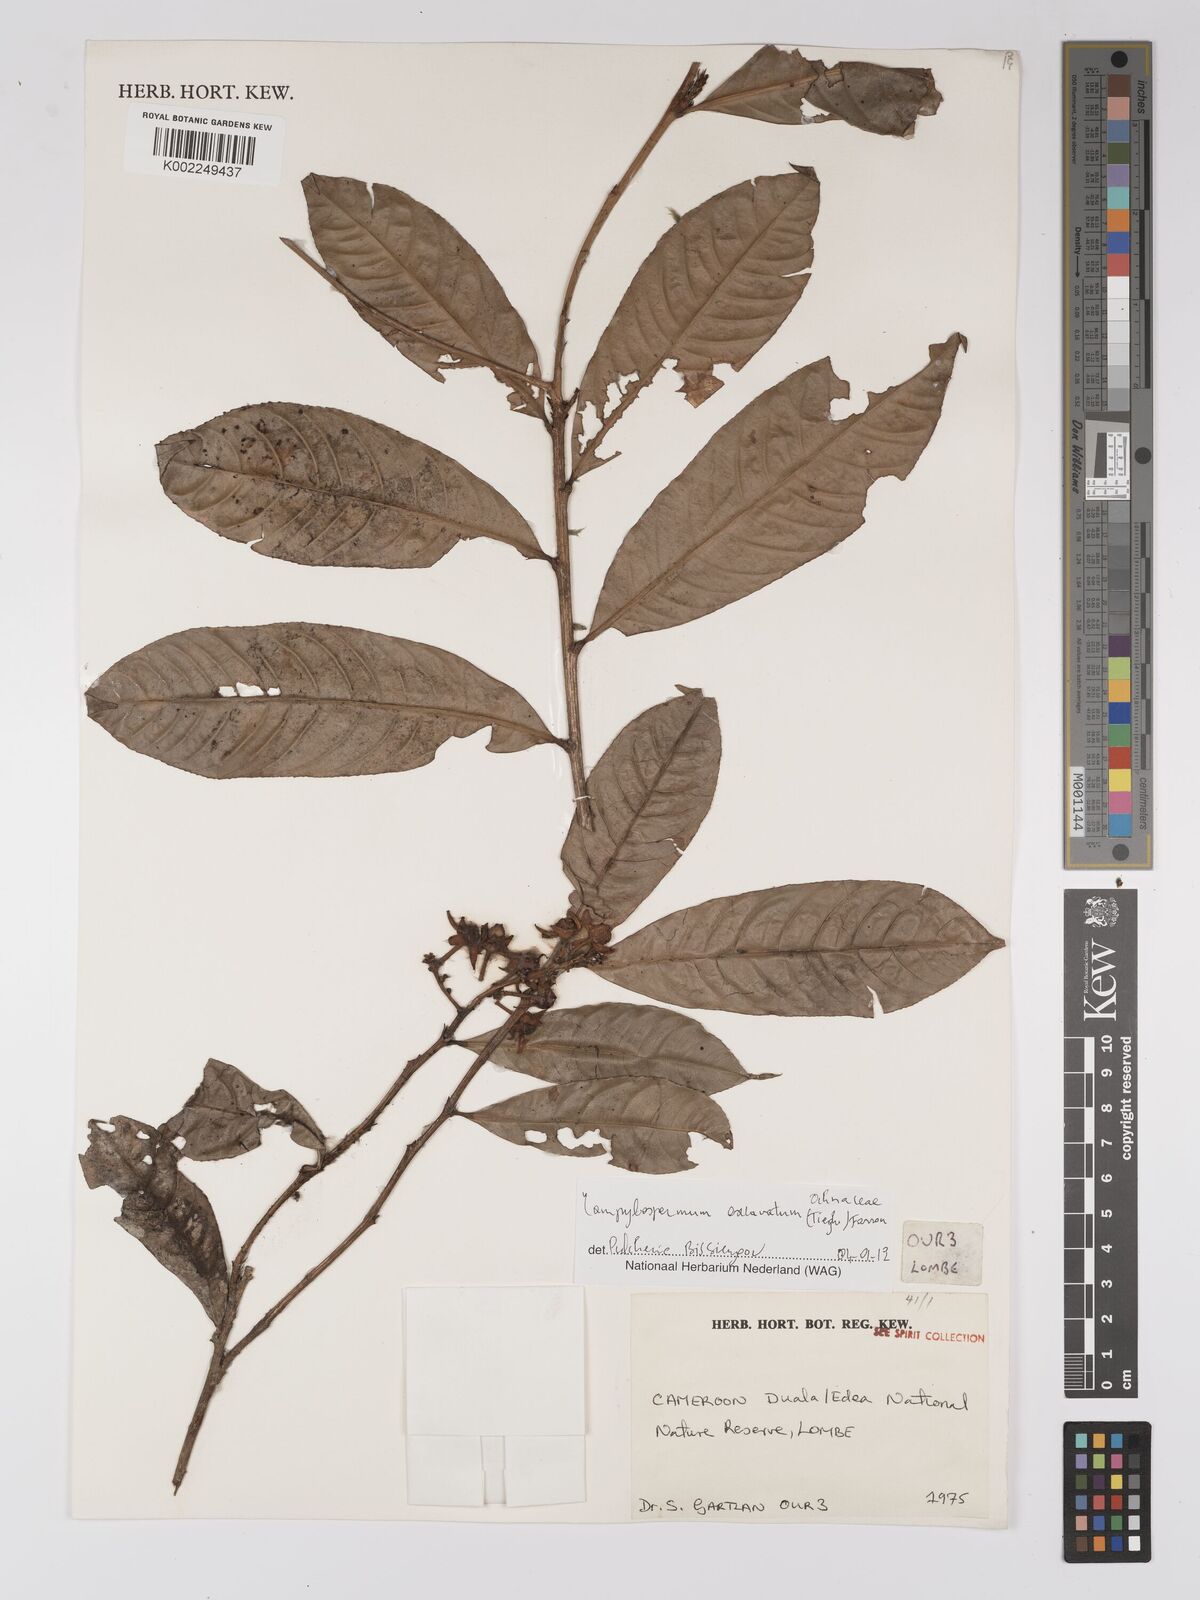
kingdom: Plantae
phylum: Tracheophyta
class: Magnoliopsida
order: Malpighiales
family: Ochnaceae
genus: Campylospermum
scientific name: Campylospermum excavatum
